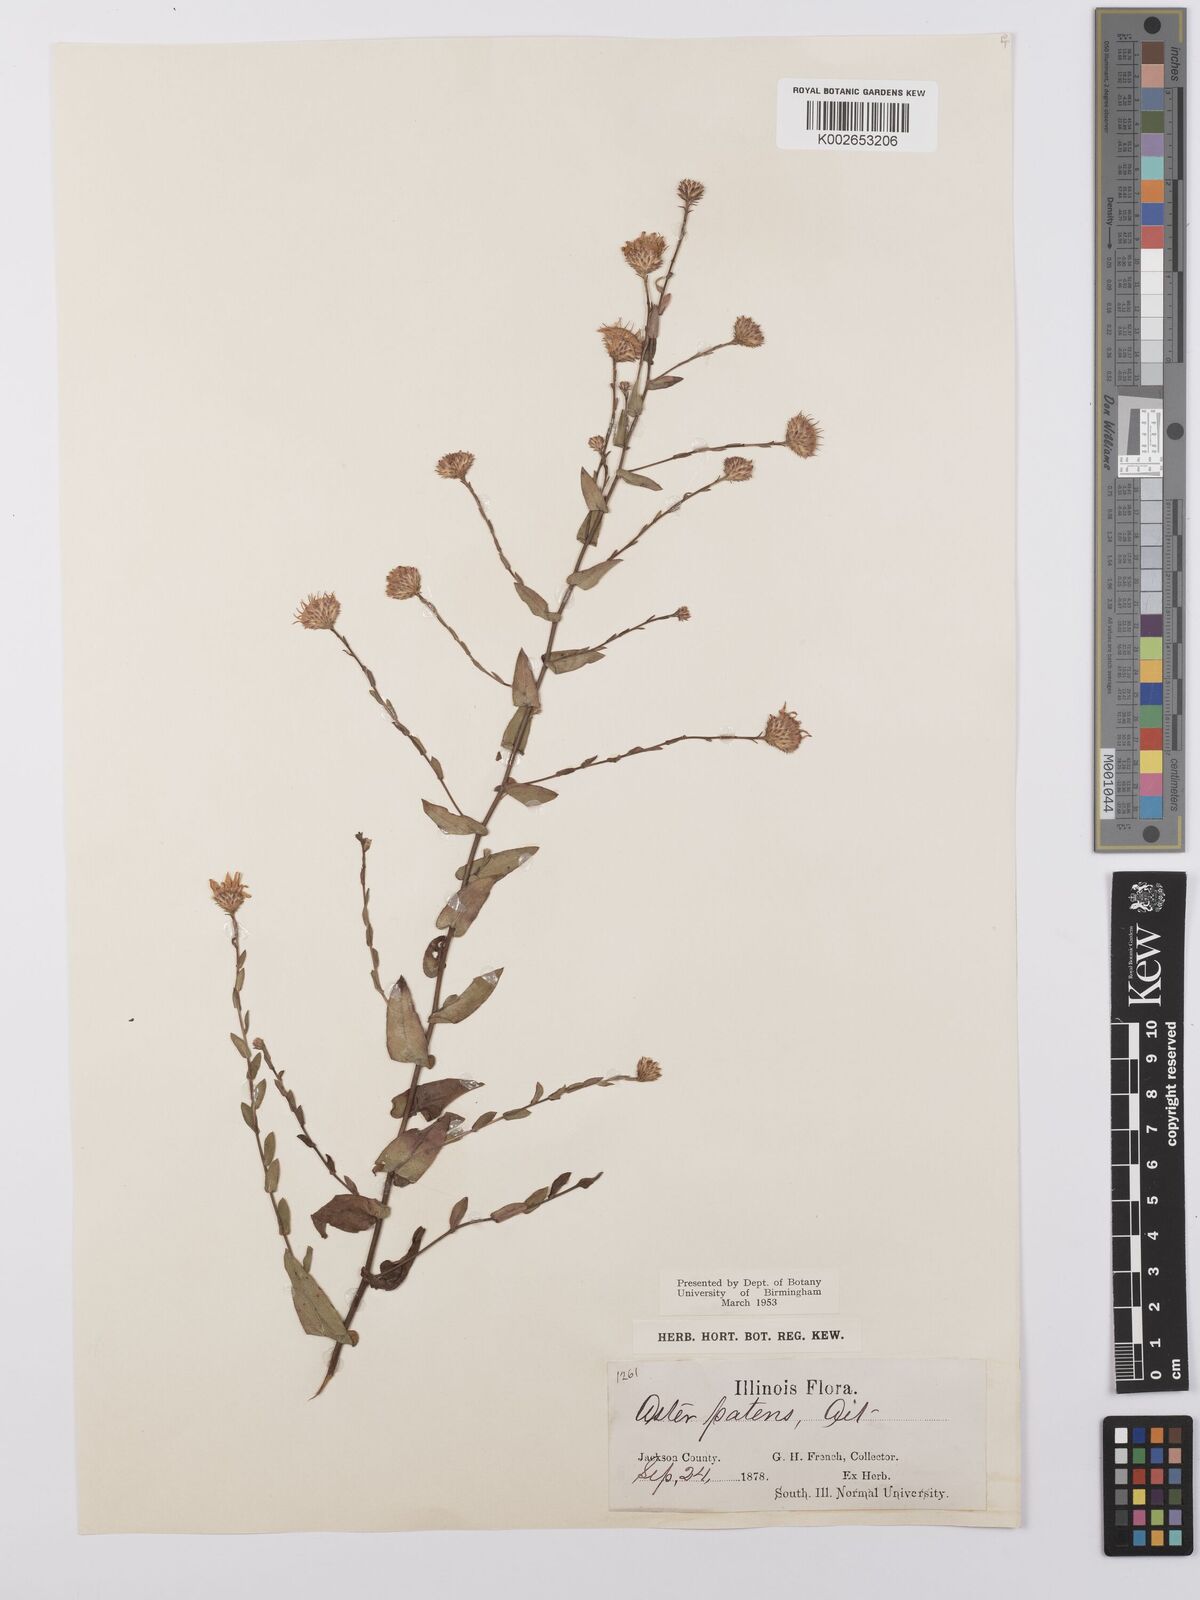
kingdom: Plantae
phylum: Tracheophyta
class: Magnoliopsida
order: Asterales
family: Asteraceae
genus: Symphyotrichum
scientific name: Symphyotrichum patens
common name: Late purple aster
